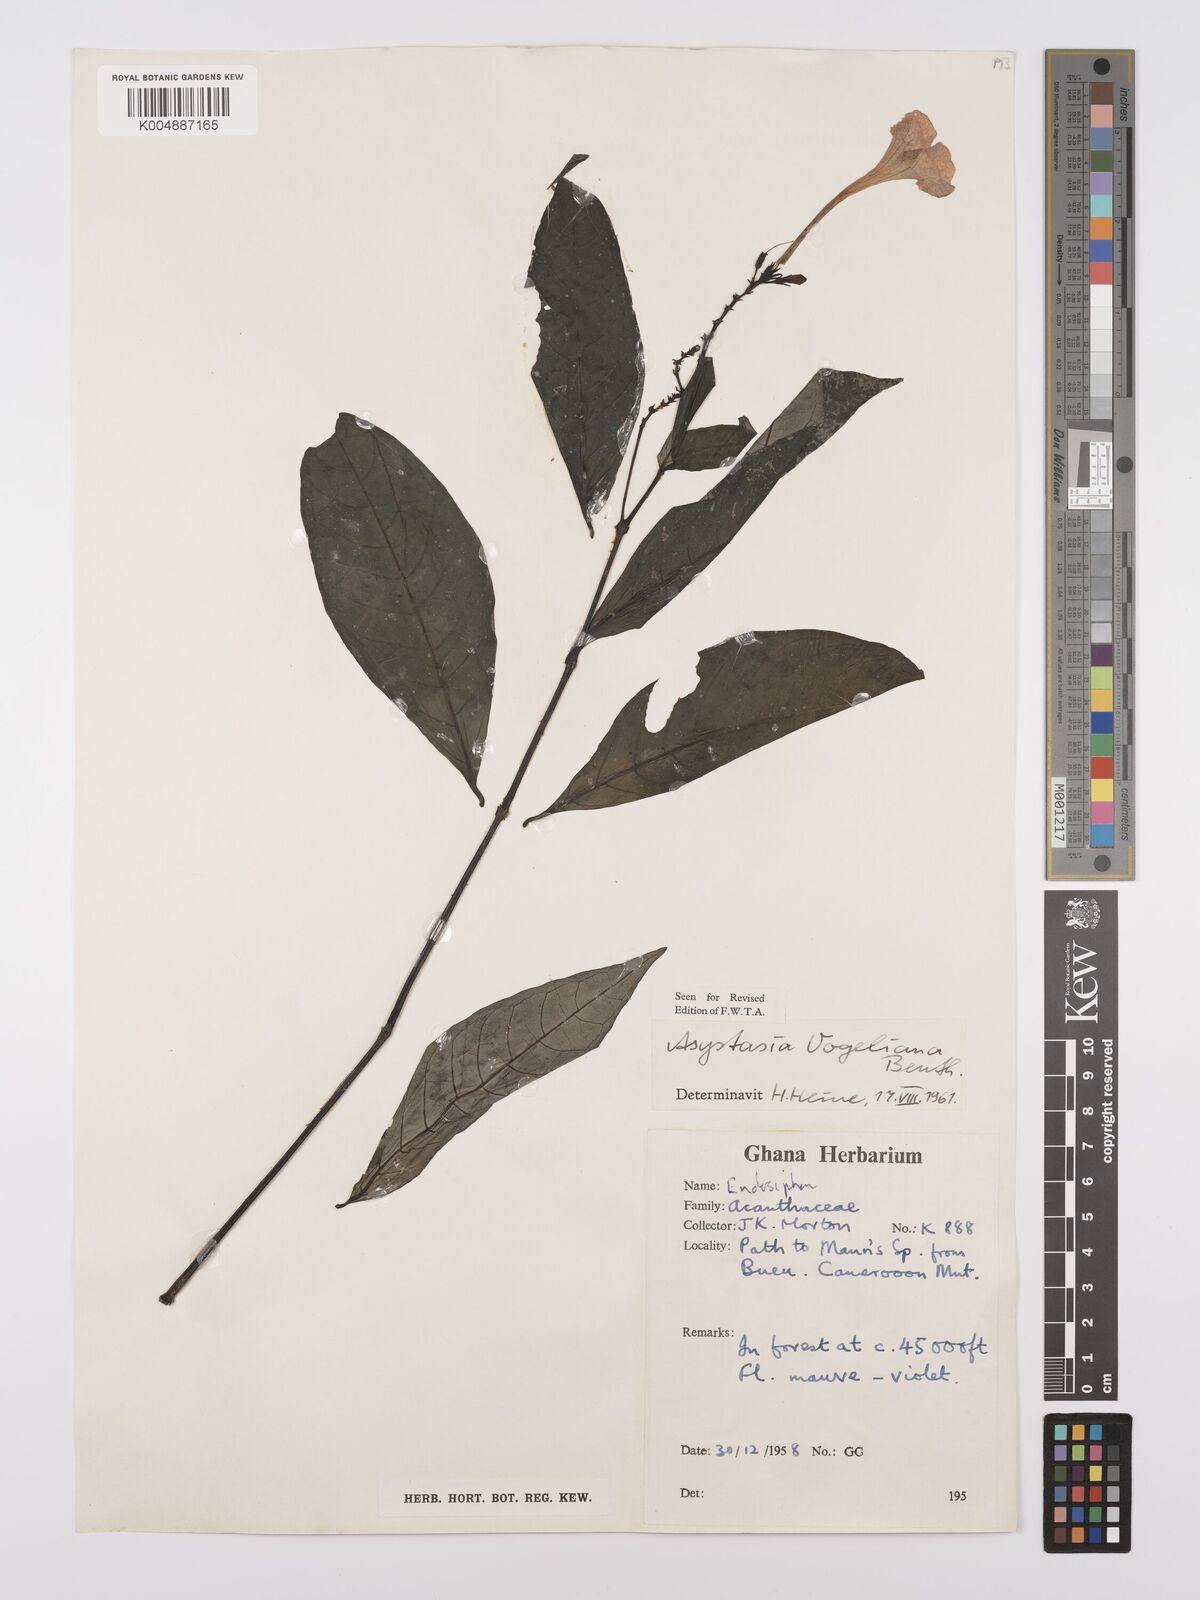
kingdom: Plantae
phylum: Tracheophyta
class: Magnoliopsida
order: Lamiales
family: Acanthaceae
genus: Asystasia
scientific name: Asystasia vogeliana
